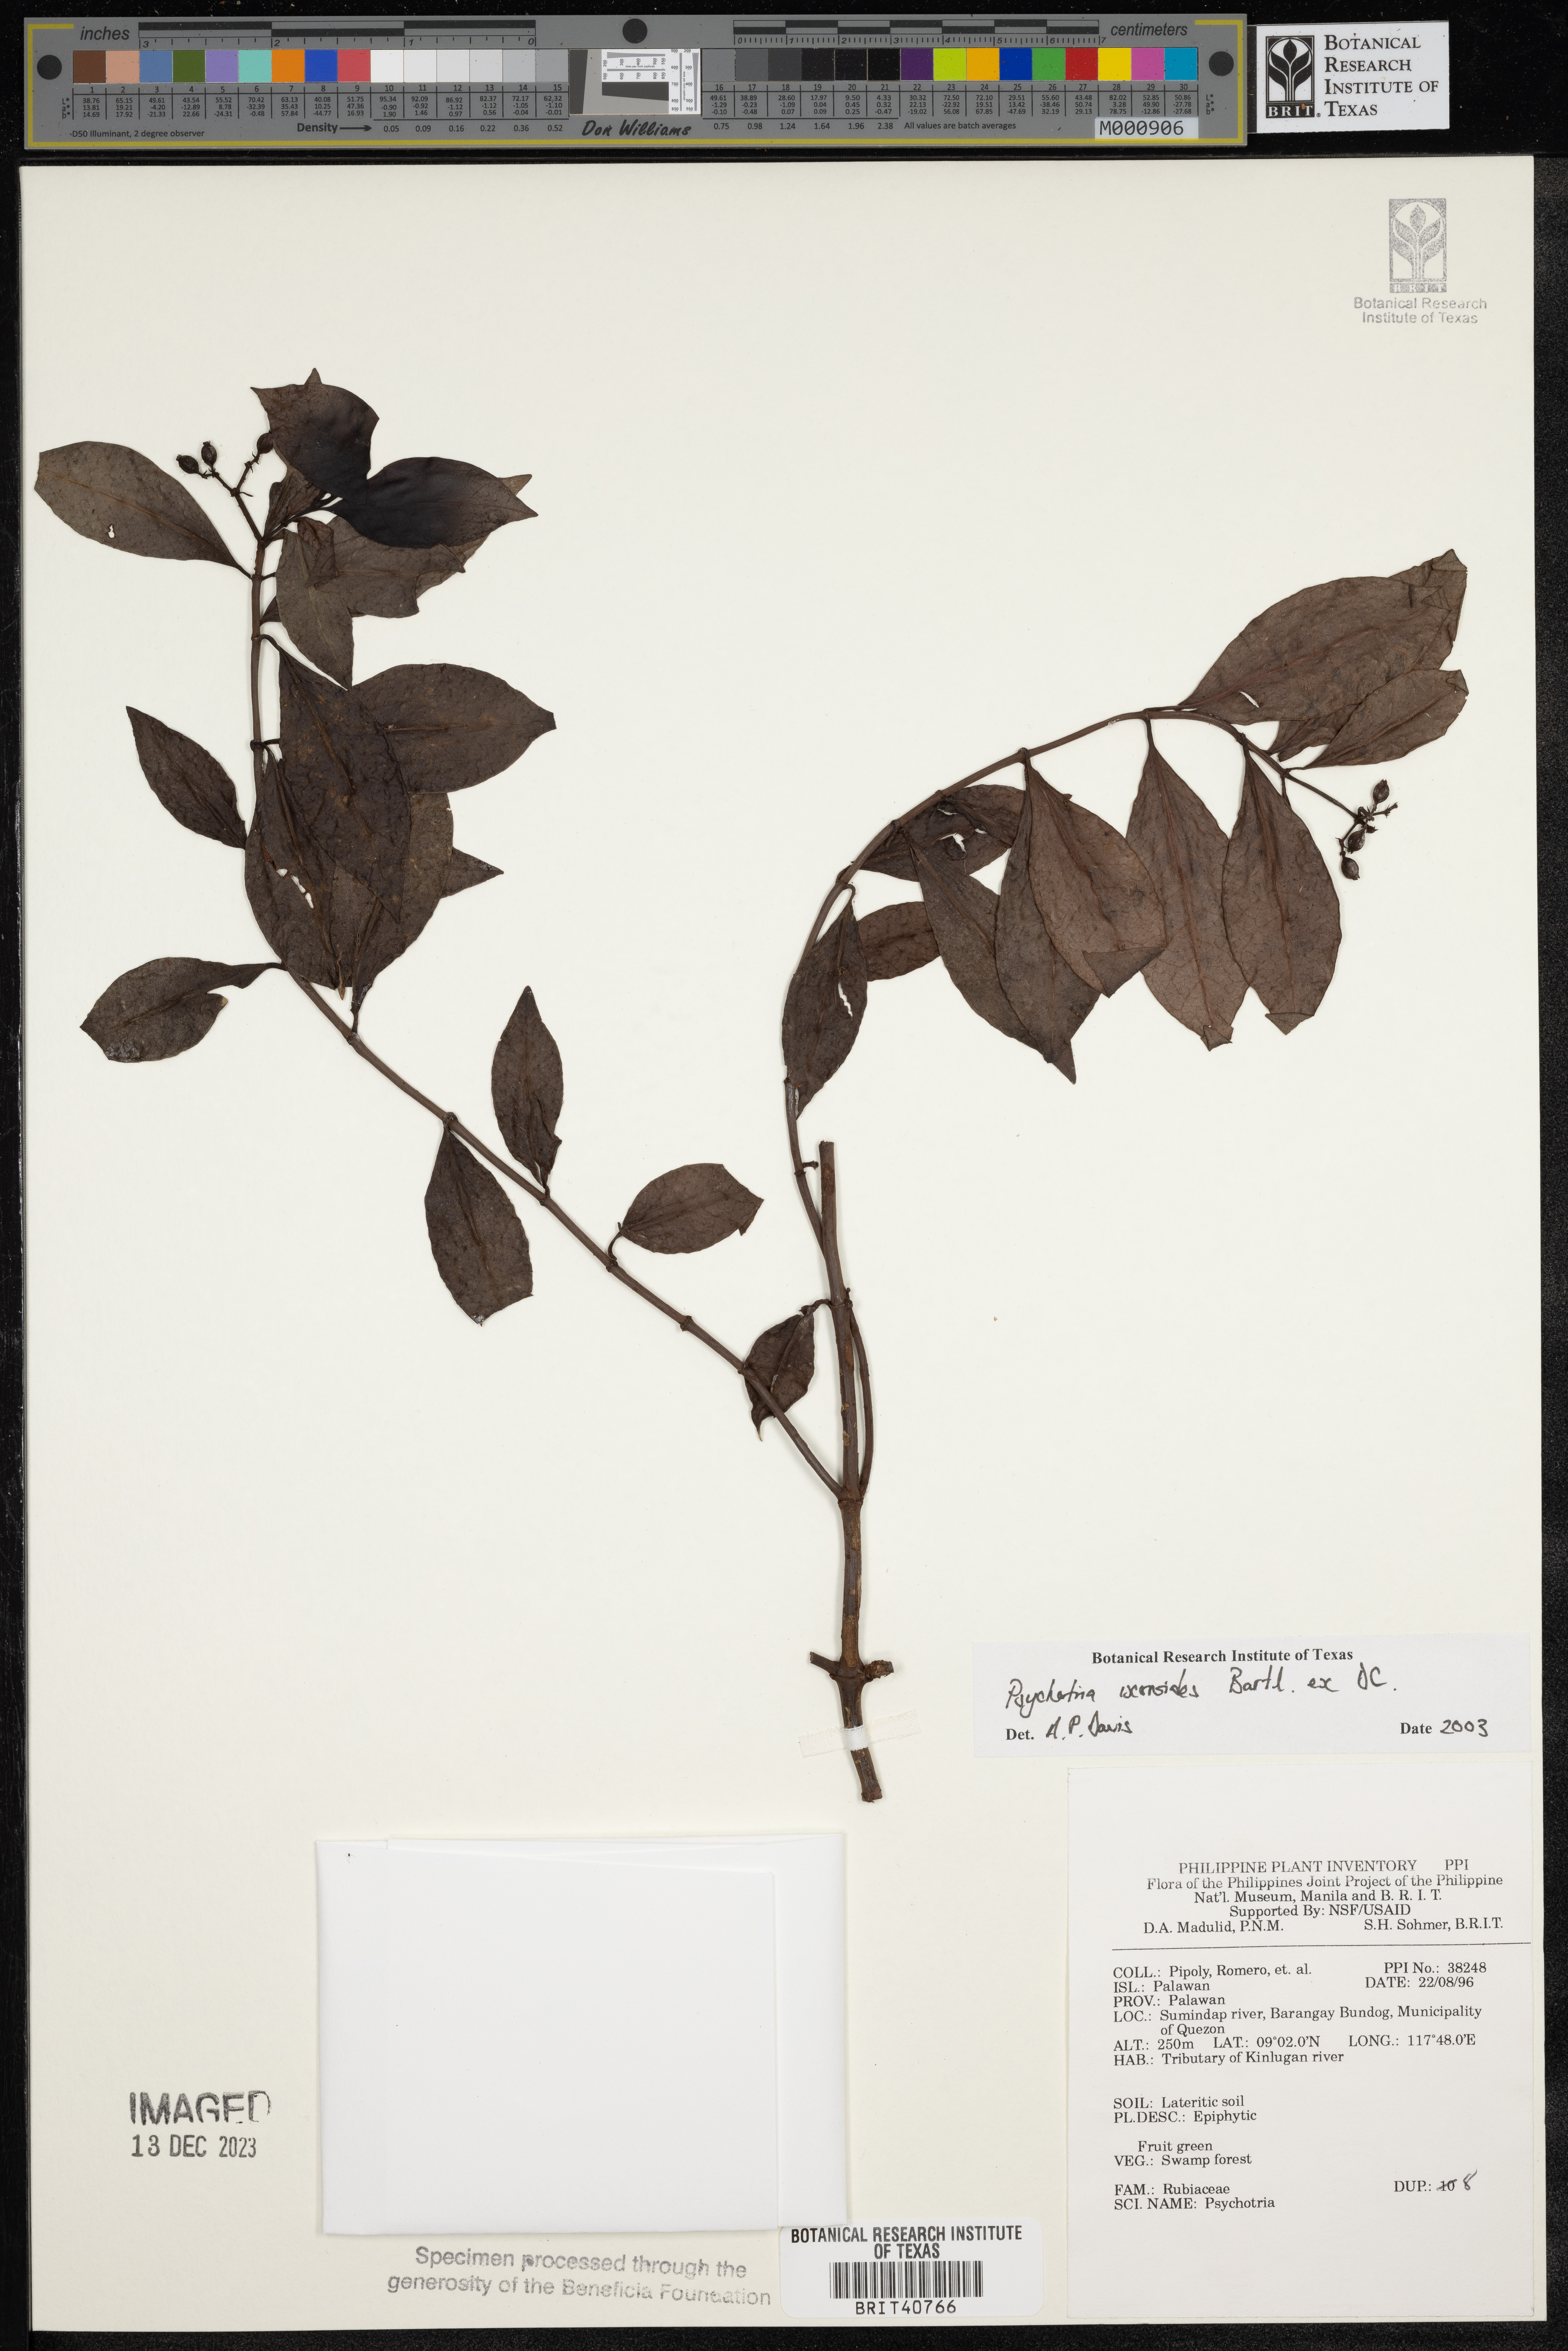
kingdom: Plantae
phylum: Tracheophyta
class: Magnoliopsida
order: Gentianales
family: Rubiaceae
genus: Psychotria
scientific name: Psychotria ixoroides
